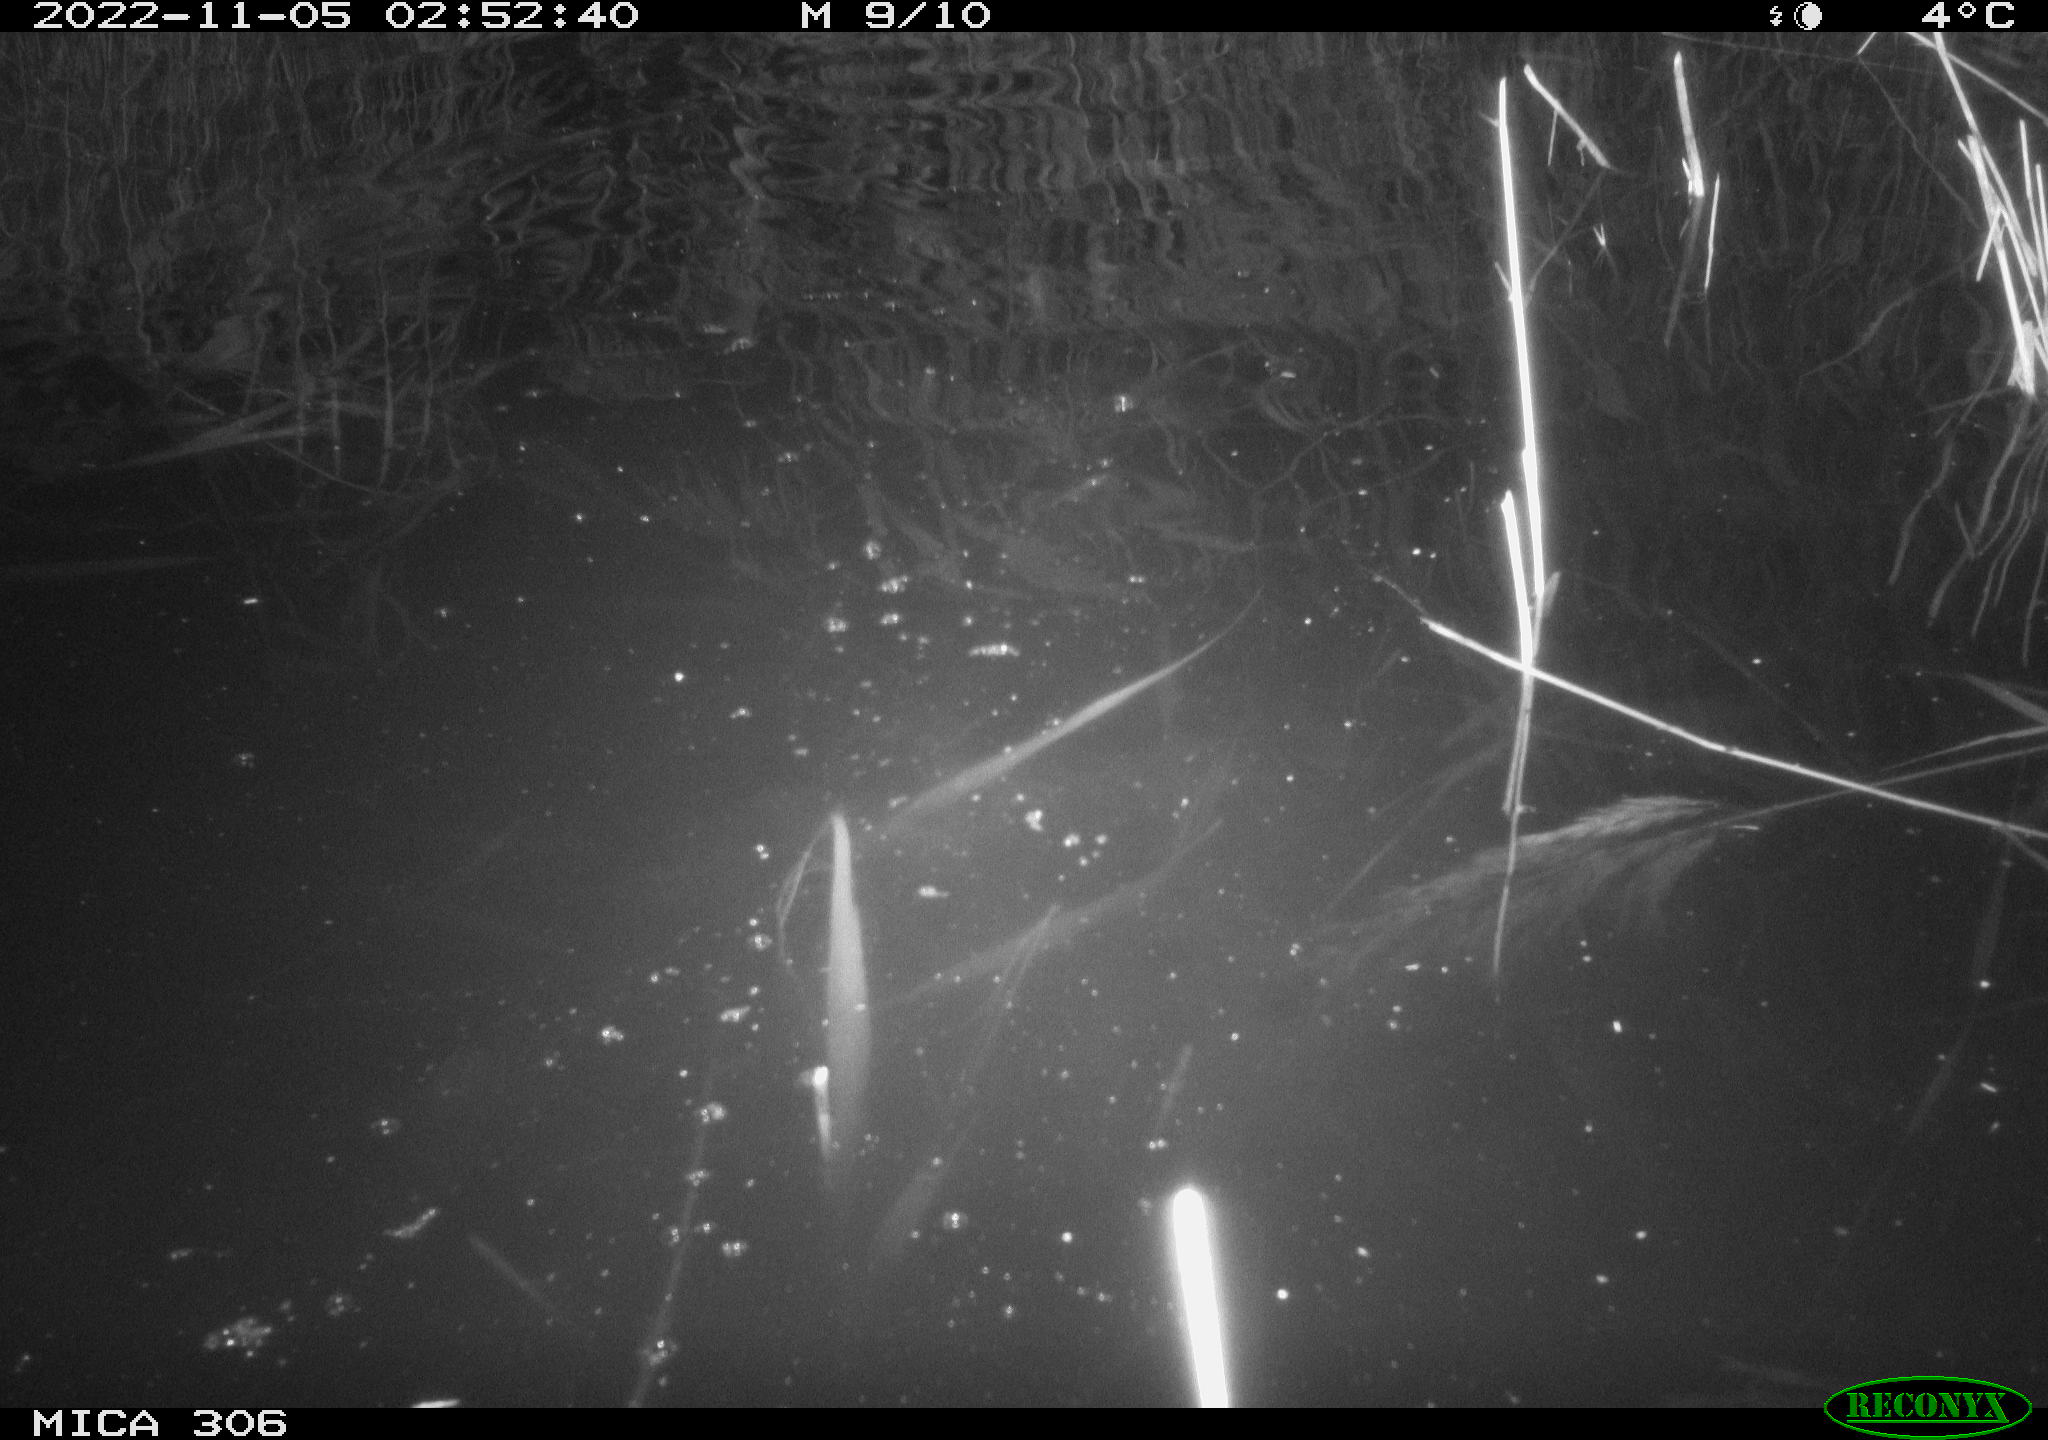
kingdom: Animalia
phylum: Chordata
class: Mammalia
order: Rodentia
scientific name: Rodentia
